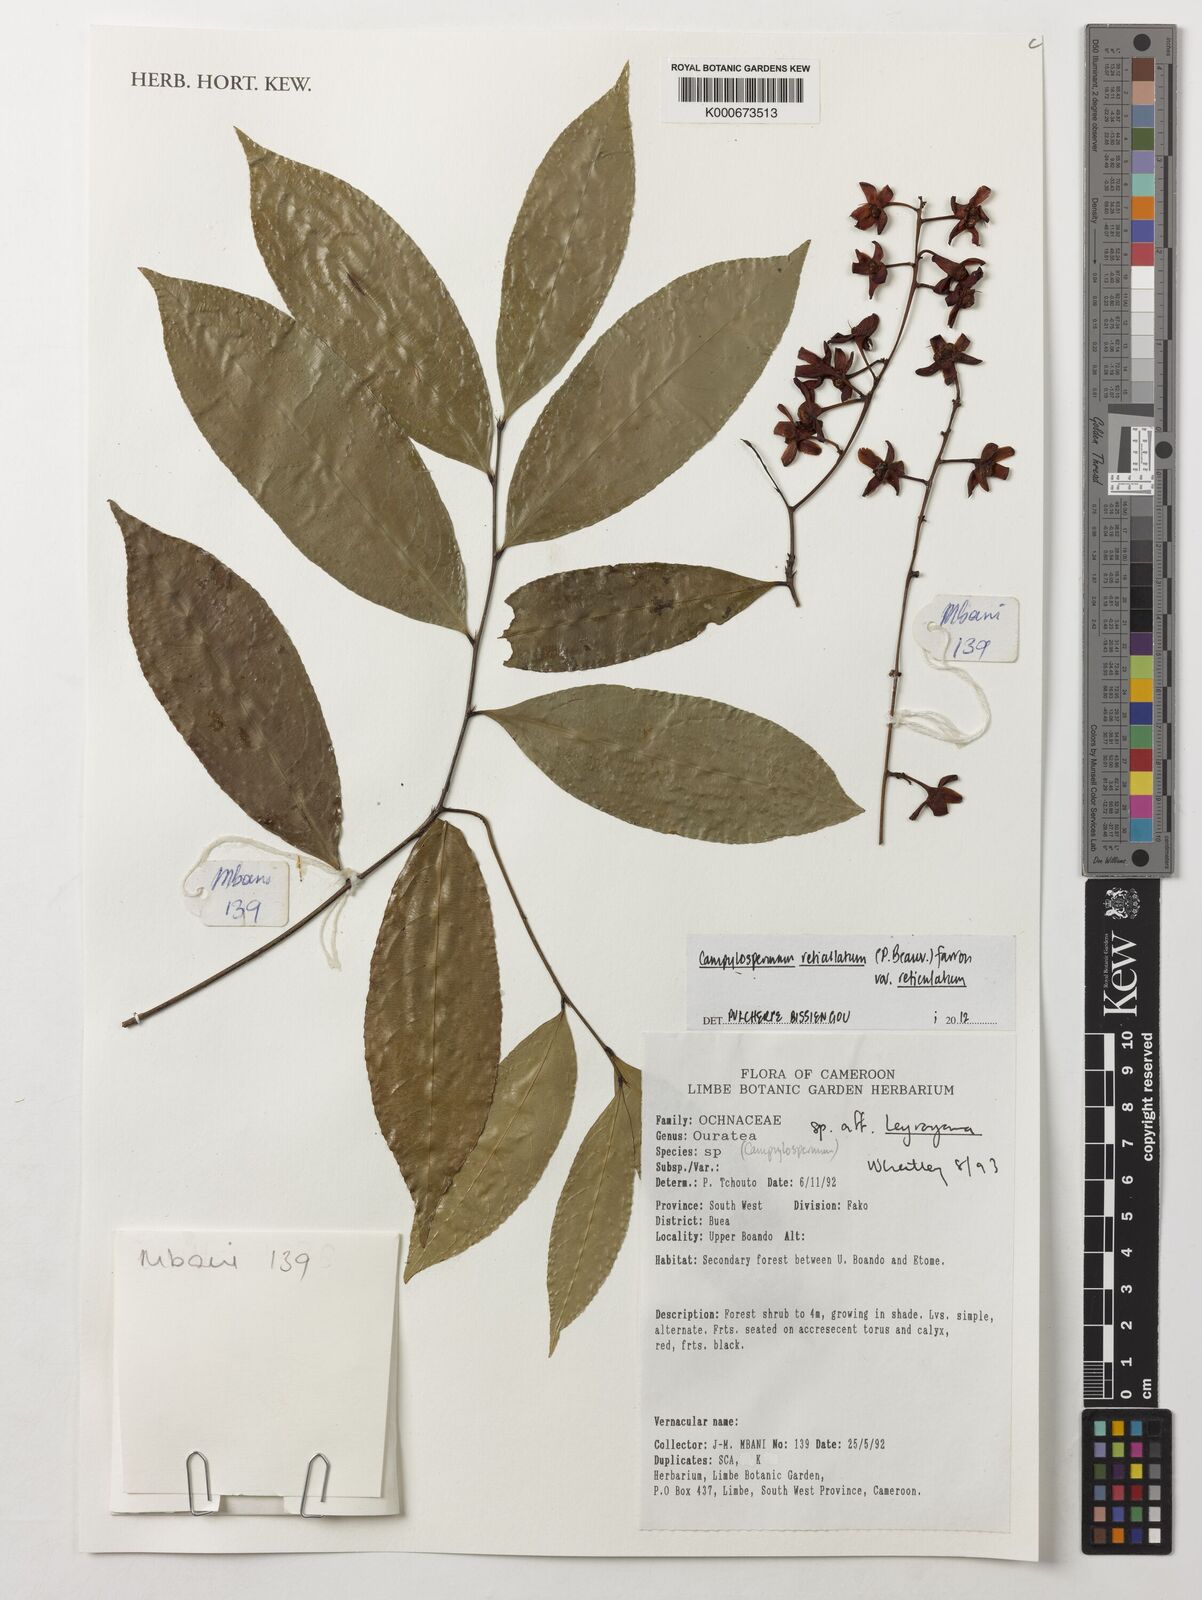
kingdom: Plantae
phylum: Tracheophyta
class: Magnoliopsida
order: Malpighiales
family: Ochnaceae
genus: Campylospermum
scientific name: Campylospermum reticulatum
